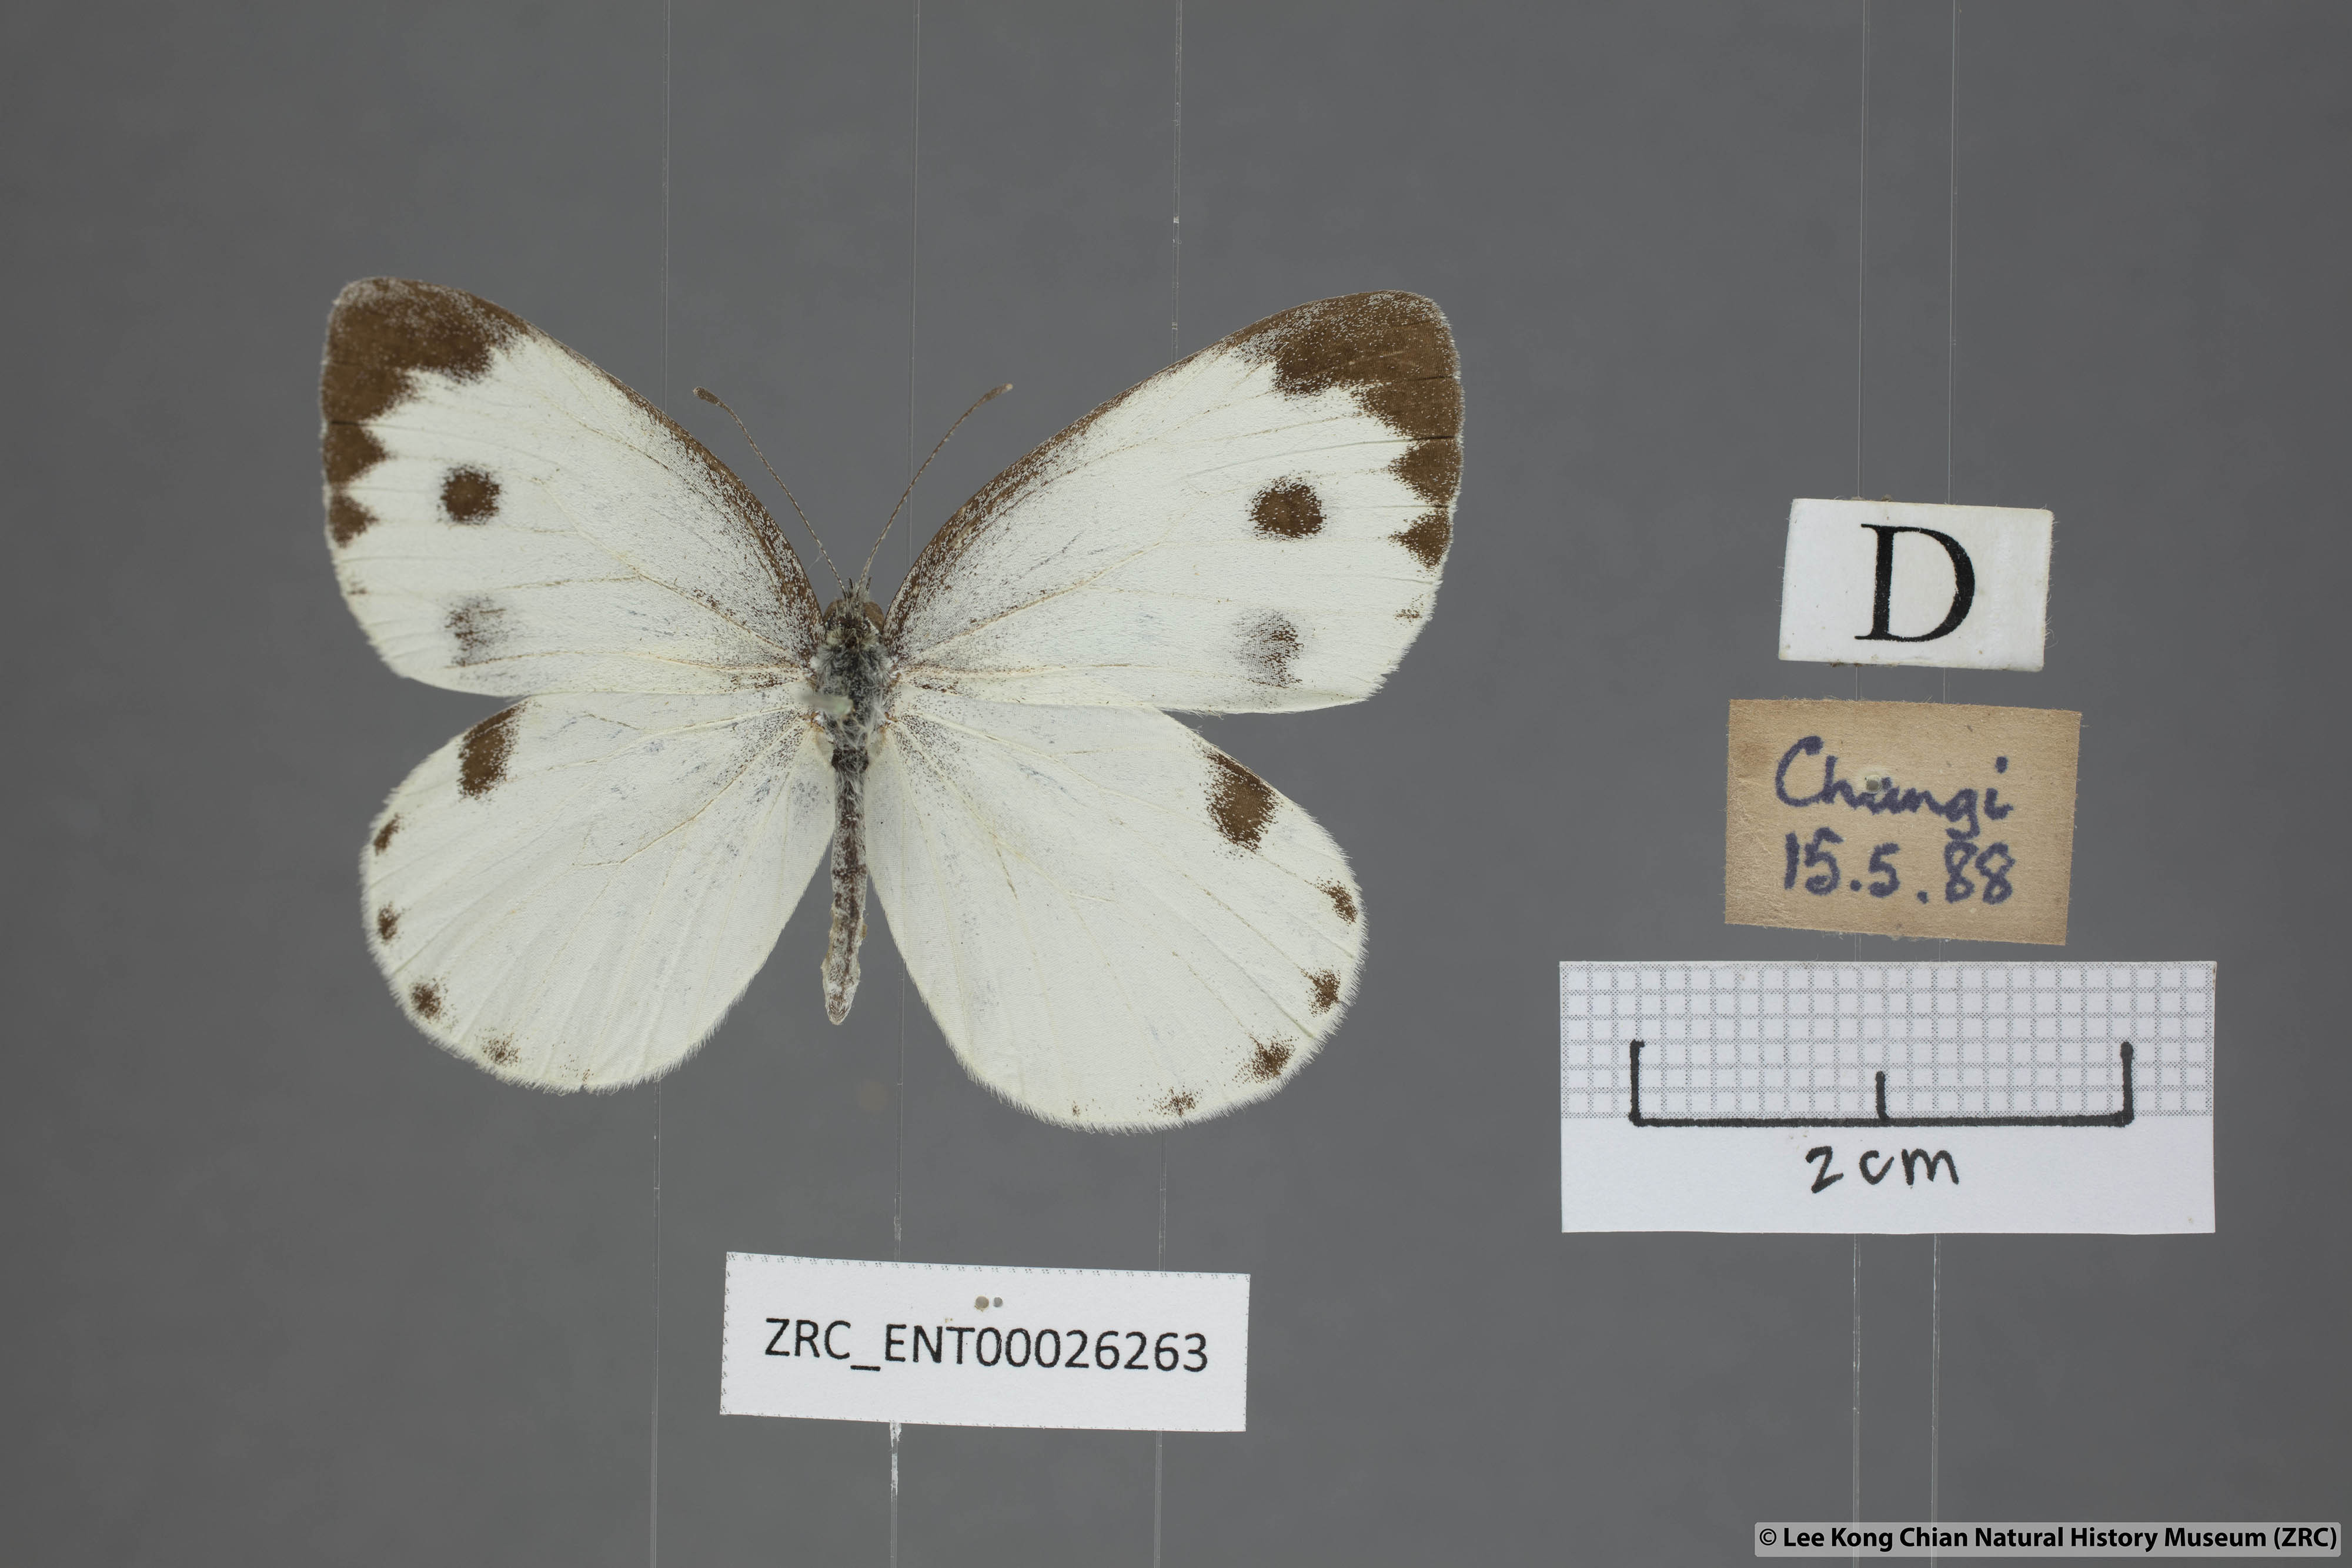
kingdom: Animalia
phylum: Arthropoda
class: Insecta
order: Lepidoptera
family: Pieridae
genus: Pieris
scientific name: Pieris canidia
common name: Indian cabbage white
